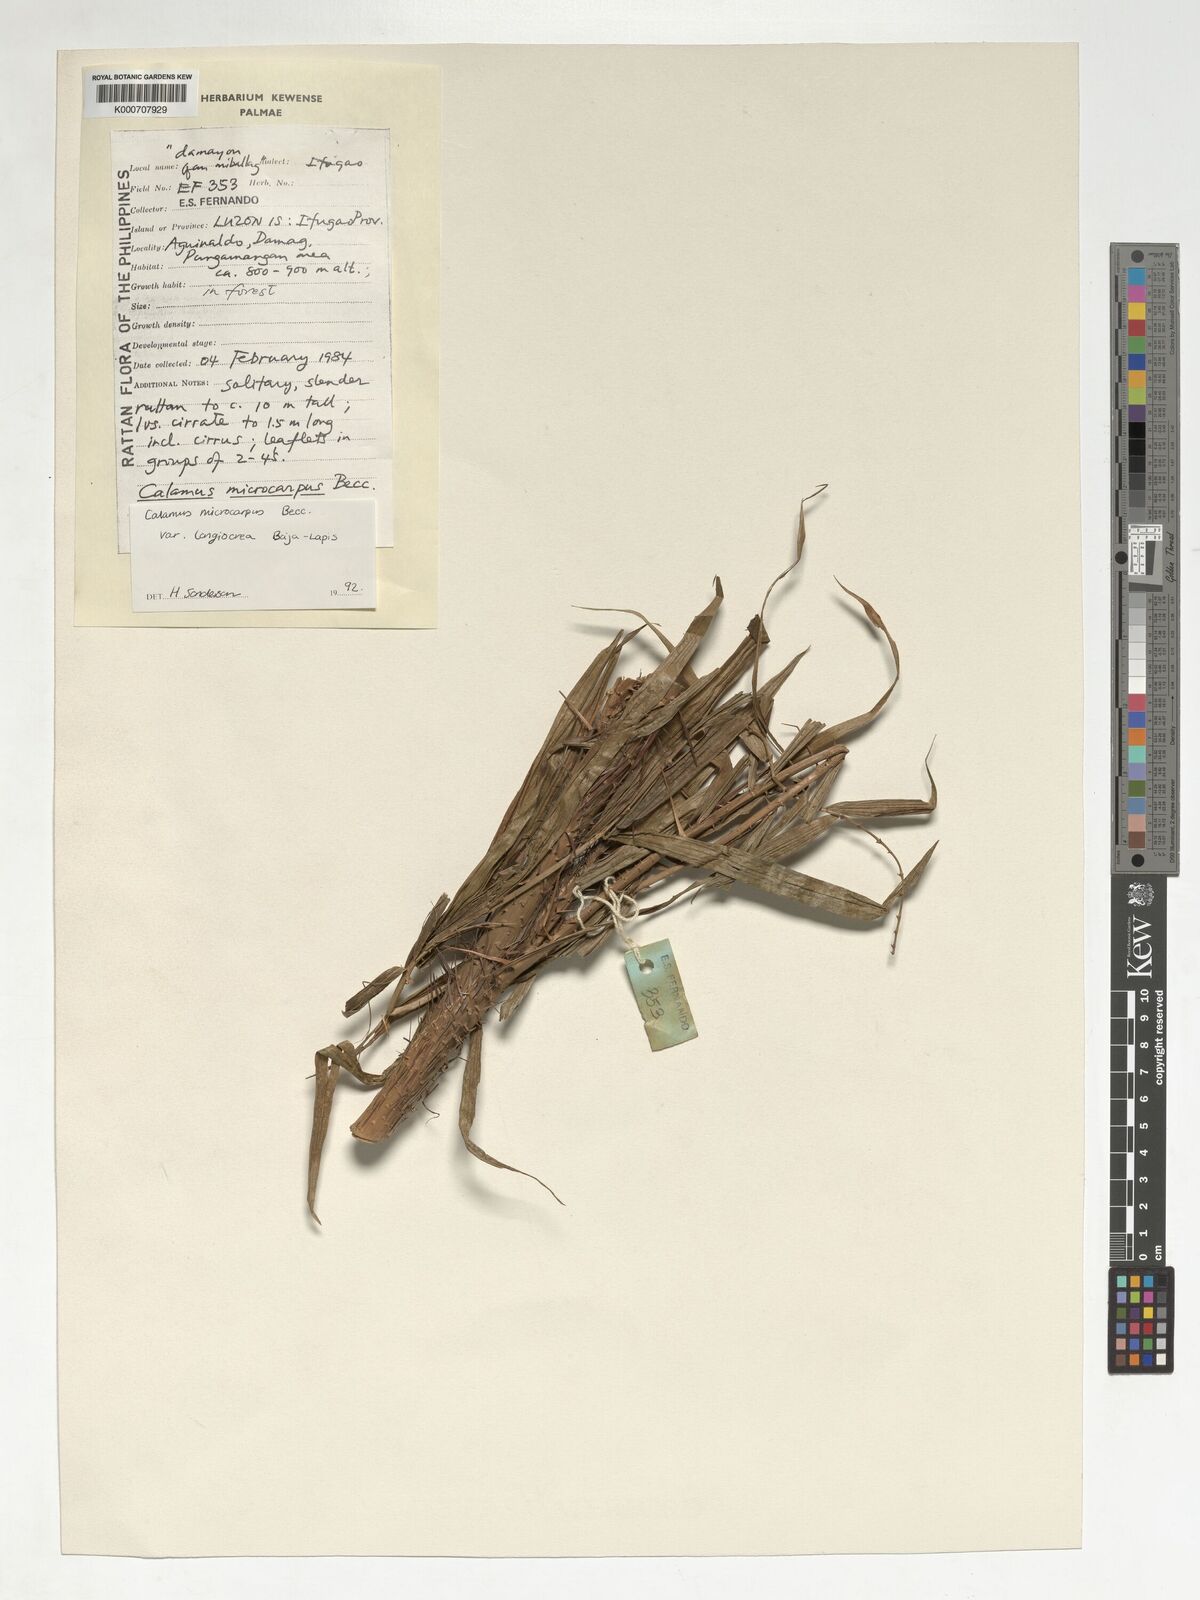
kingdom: Plantae
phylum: Tracheophyta
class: Liliopsida
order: Arecales
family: Arecaceae
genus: Calamus
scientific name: Calamus siphonospathus
